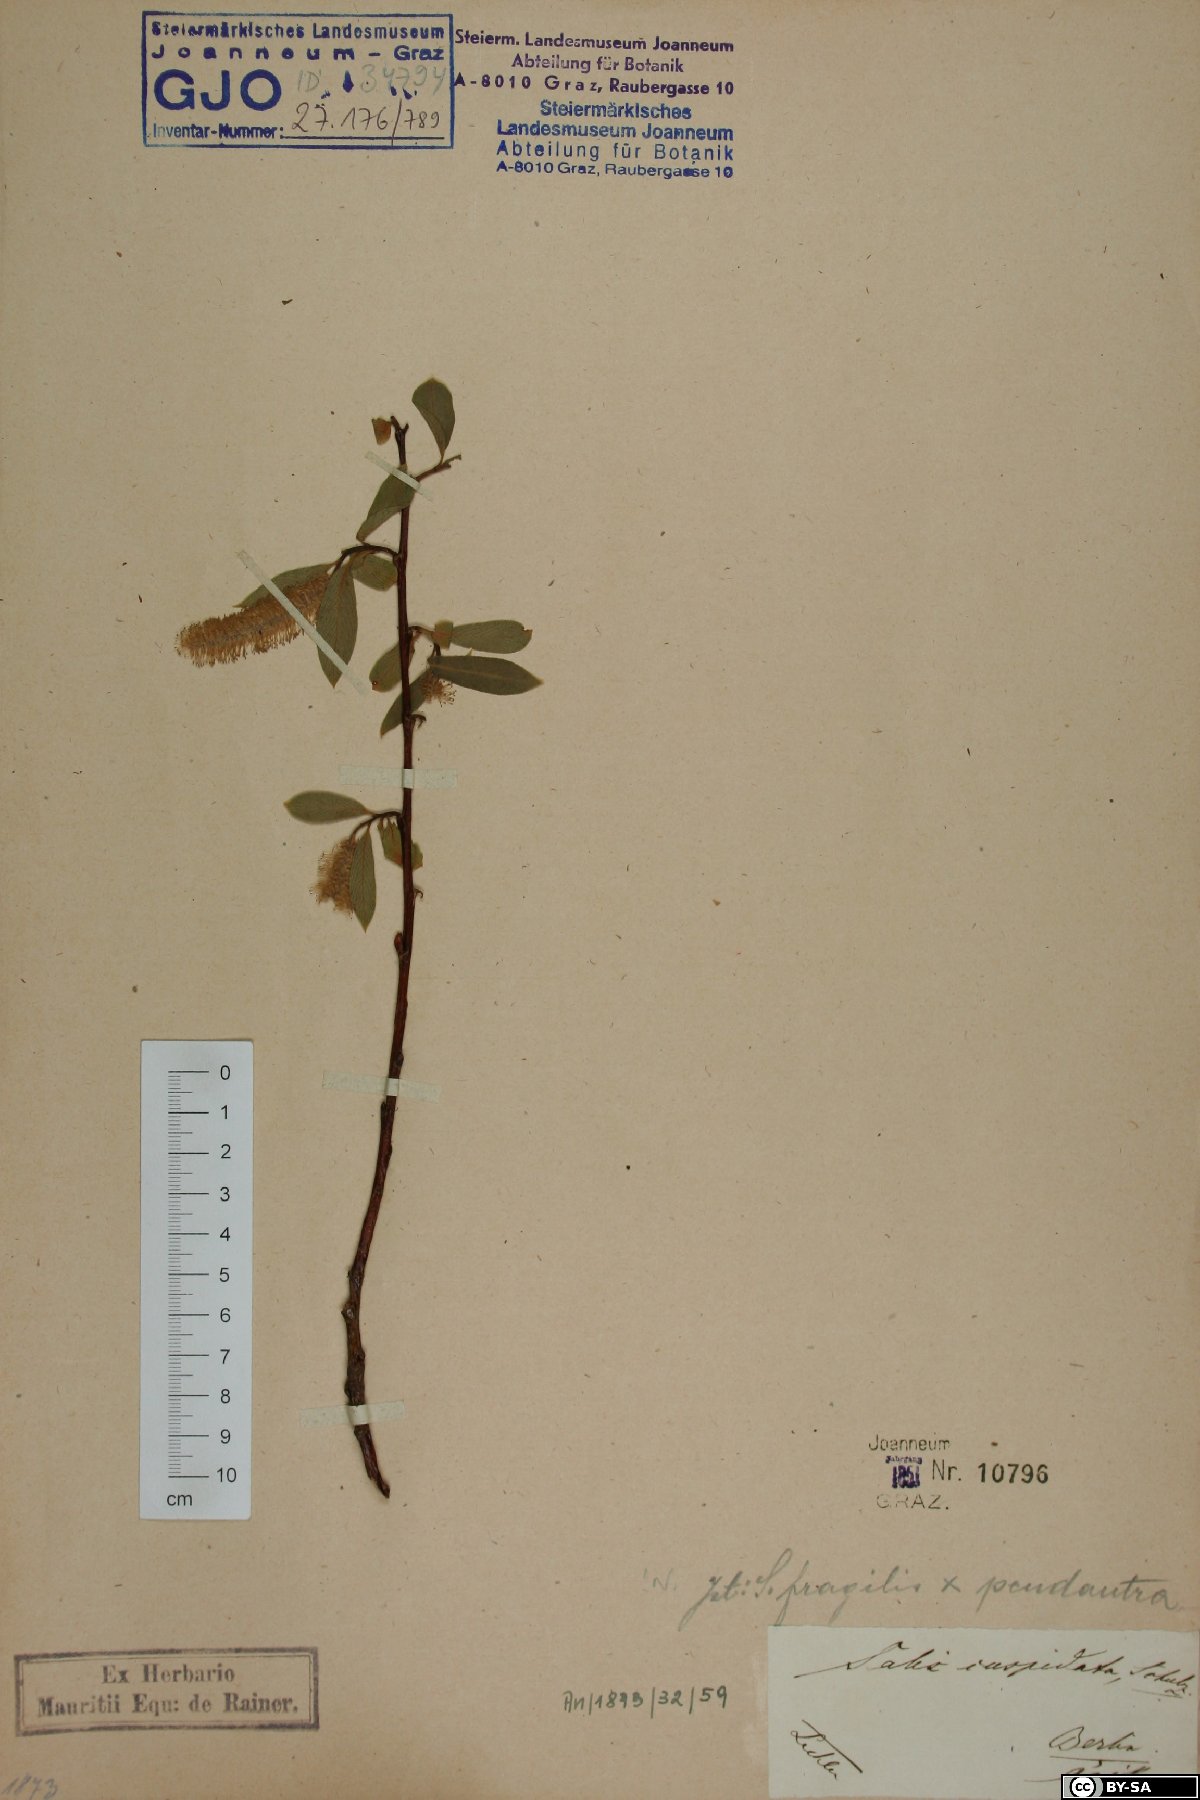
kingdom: Plantae
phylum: Tracheophyta
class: Magnoliopsida
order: Malpighiales
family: Salicaceae
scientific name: Salicaceae
